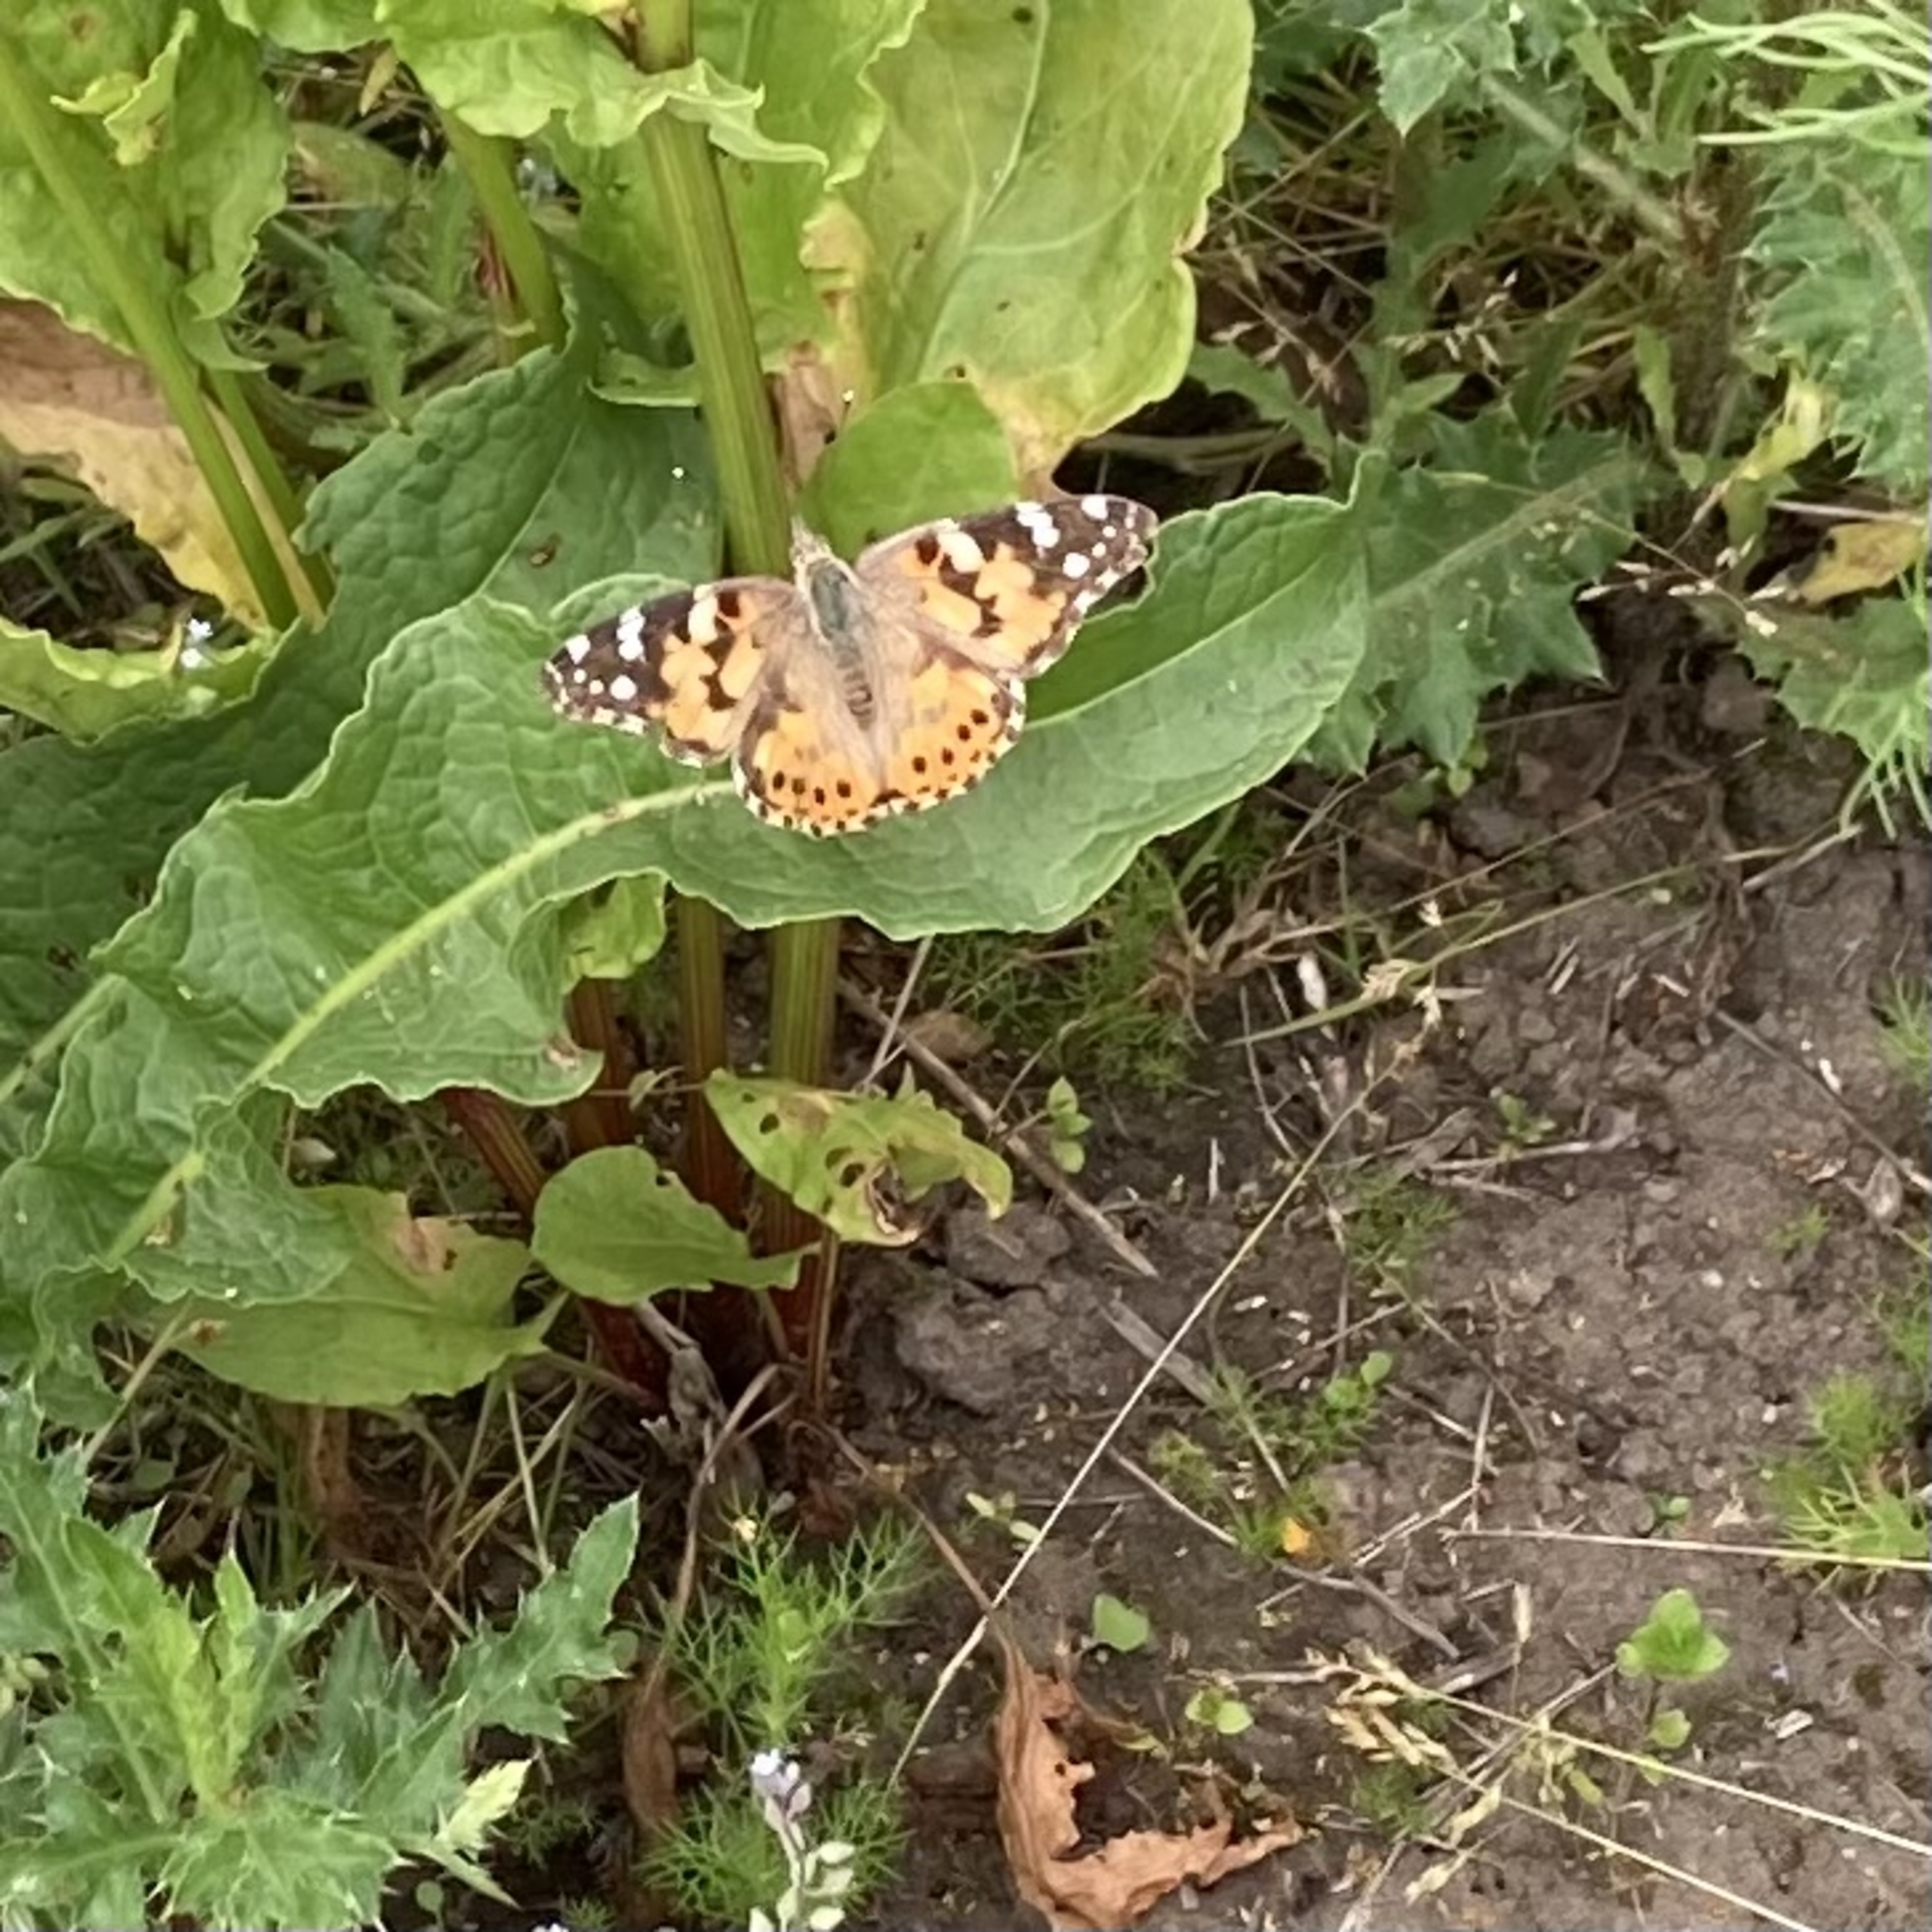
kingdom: Animalia
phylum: Arthropoda
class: Insecta
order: Lepidoptera
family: Nymphalidae
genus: Vanessa
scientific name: Vanessa cardui
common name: Tidselsommerfugl
